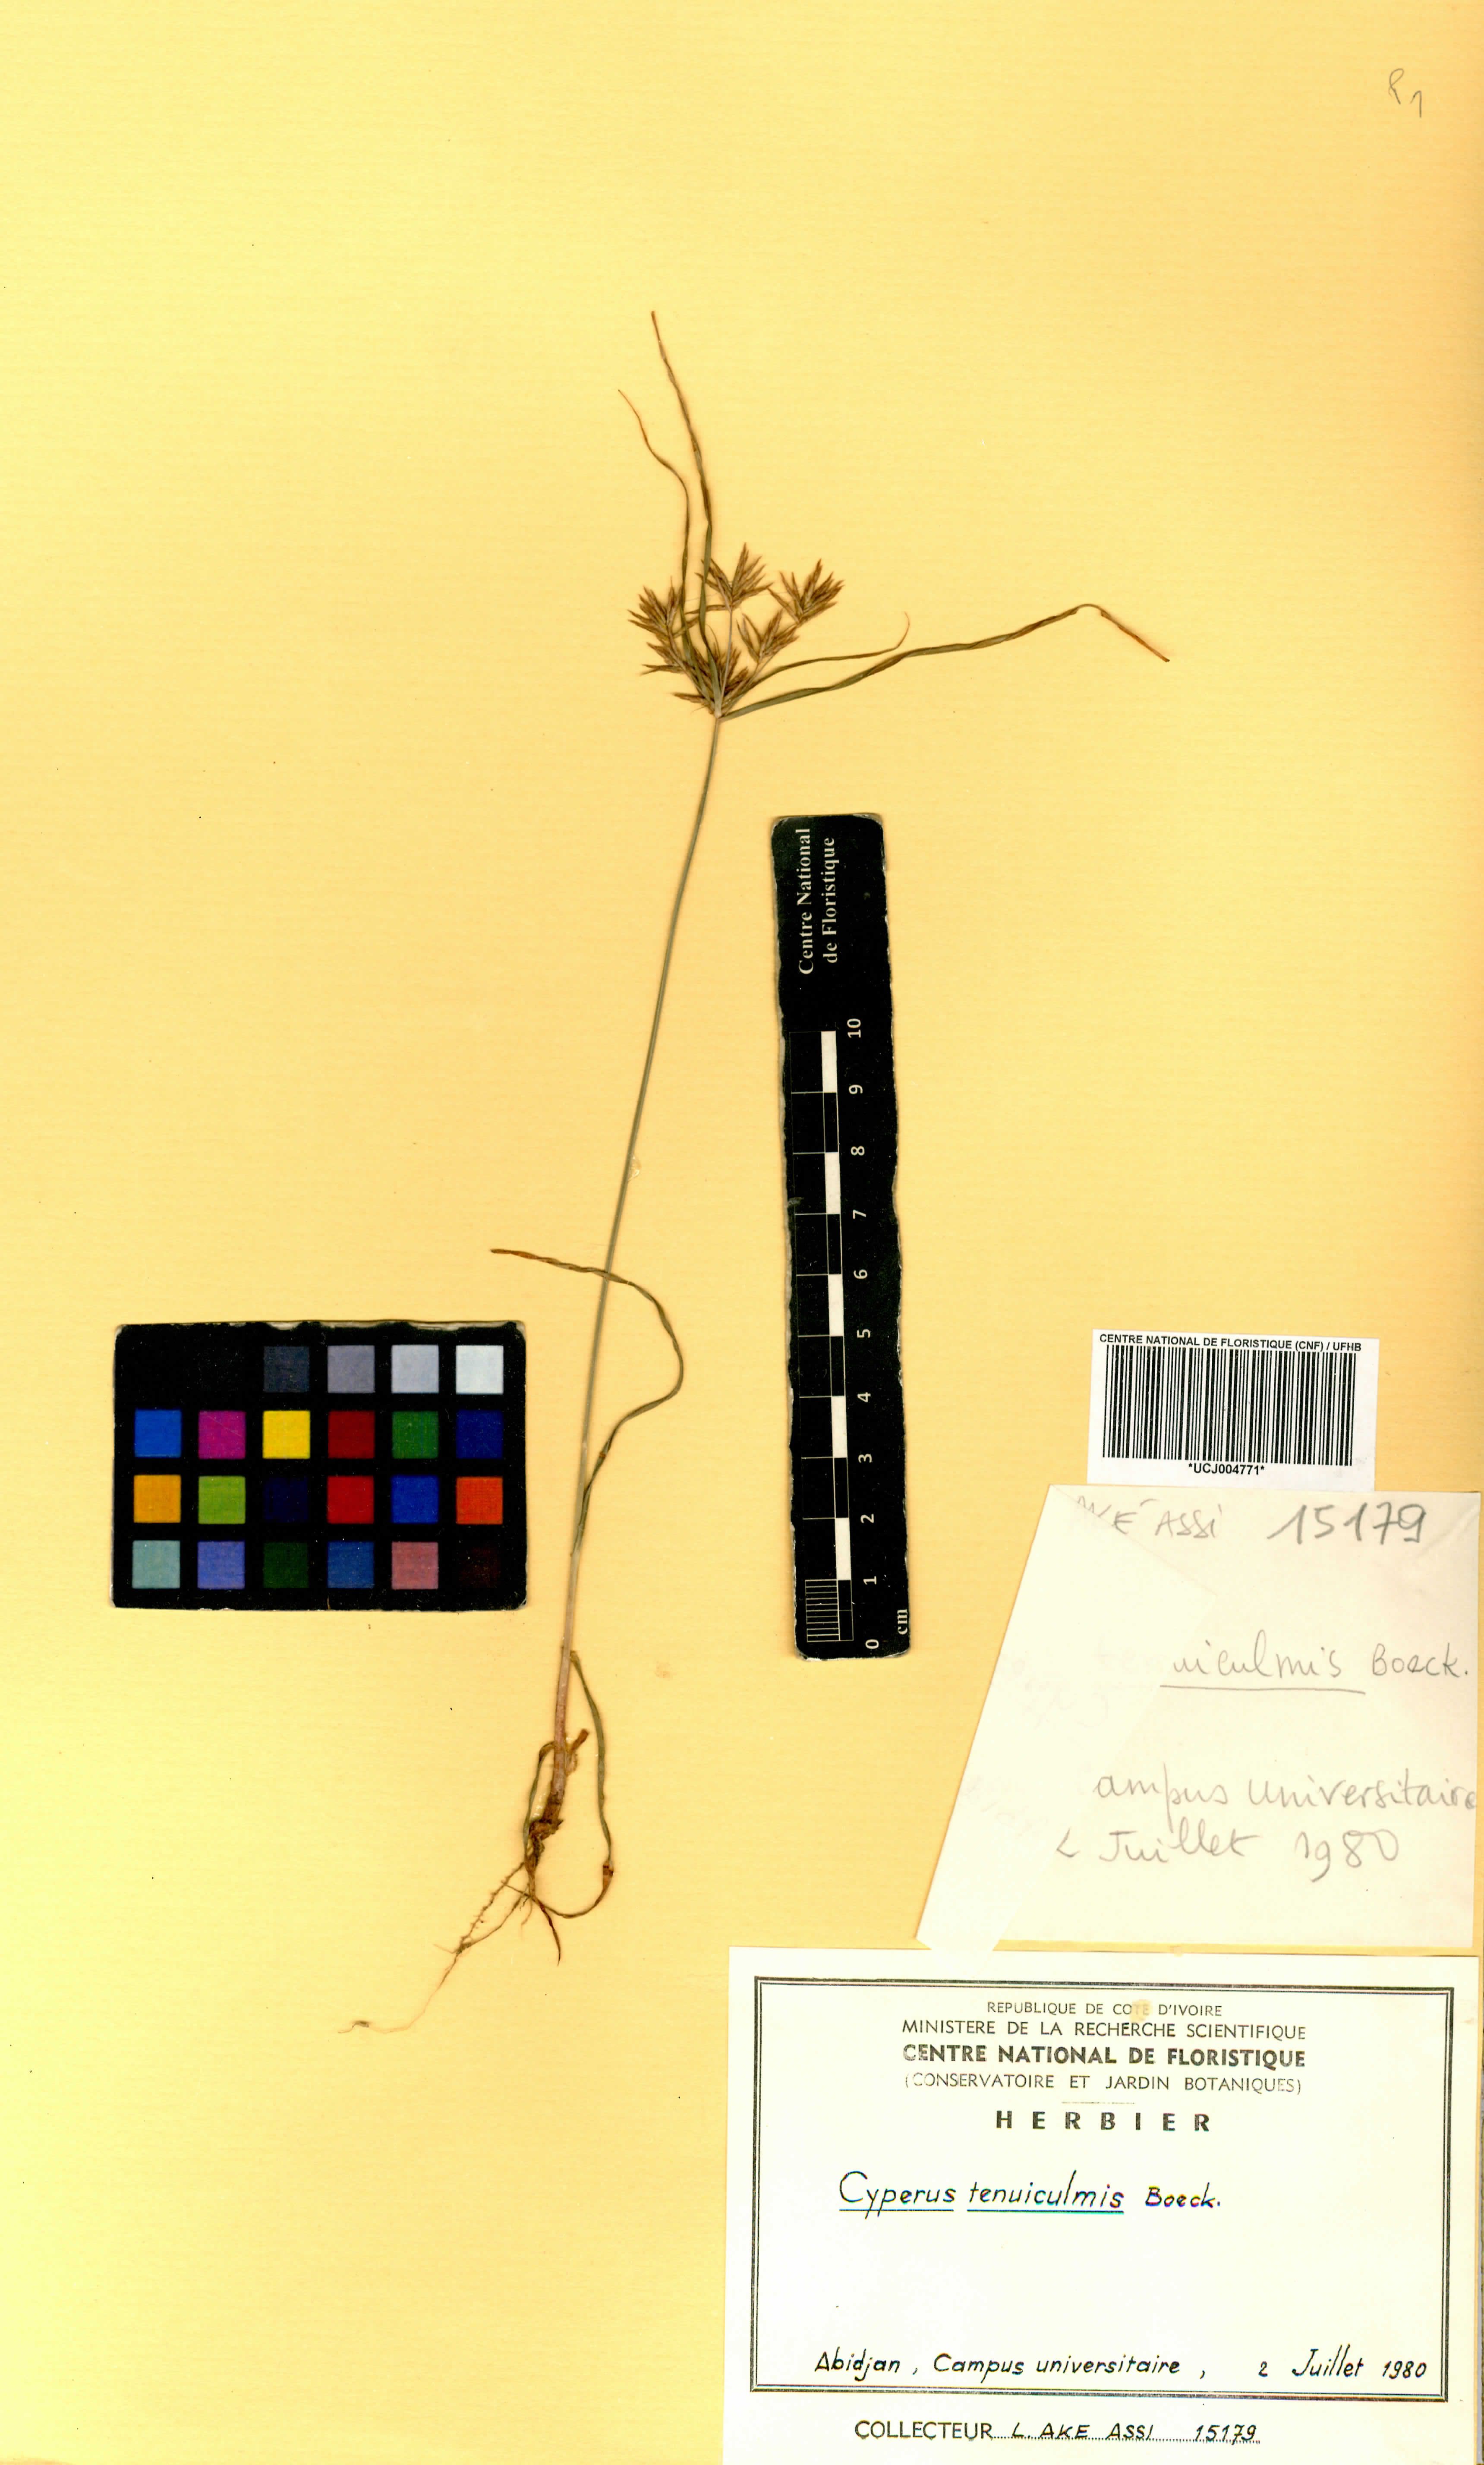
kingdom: Plantae
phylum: Tracheophyta
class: Liliopsida
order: Poales
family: Cyperaceae
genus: Cyperus
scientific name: Cyperus tenuiculmis
